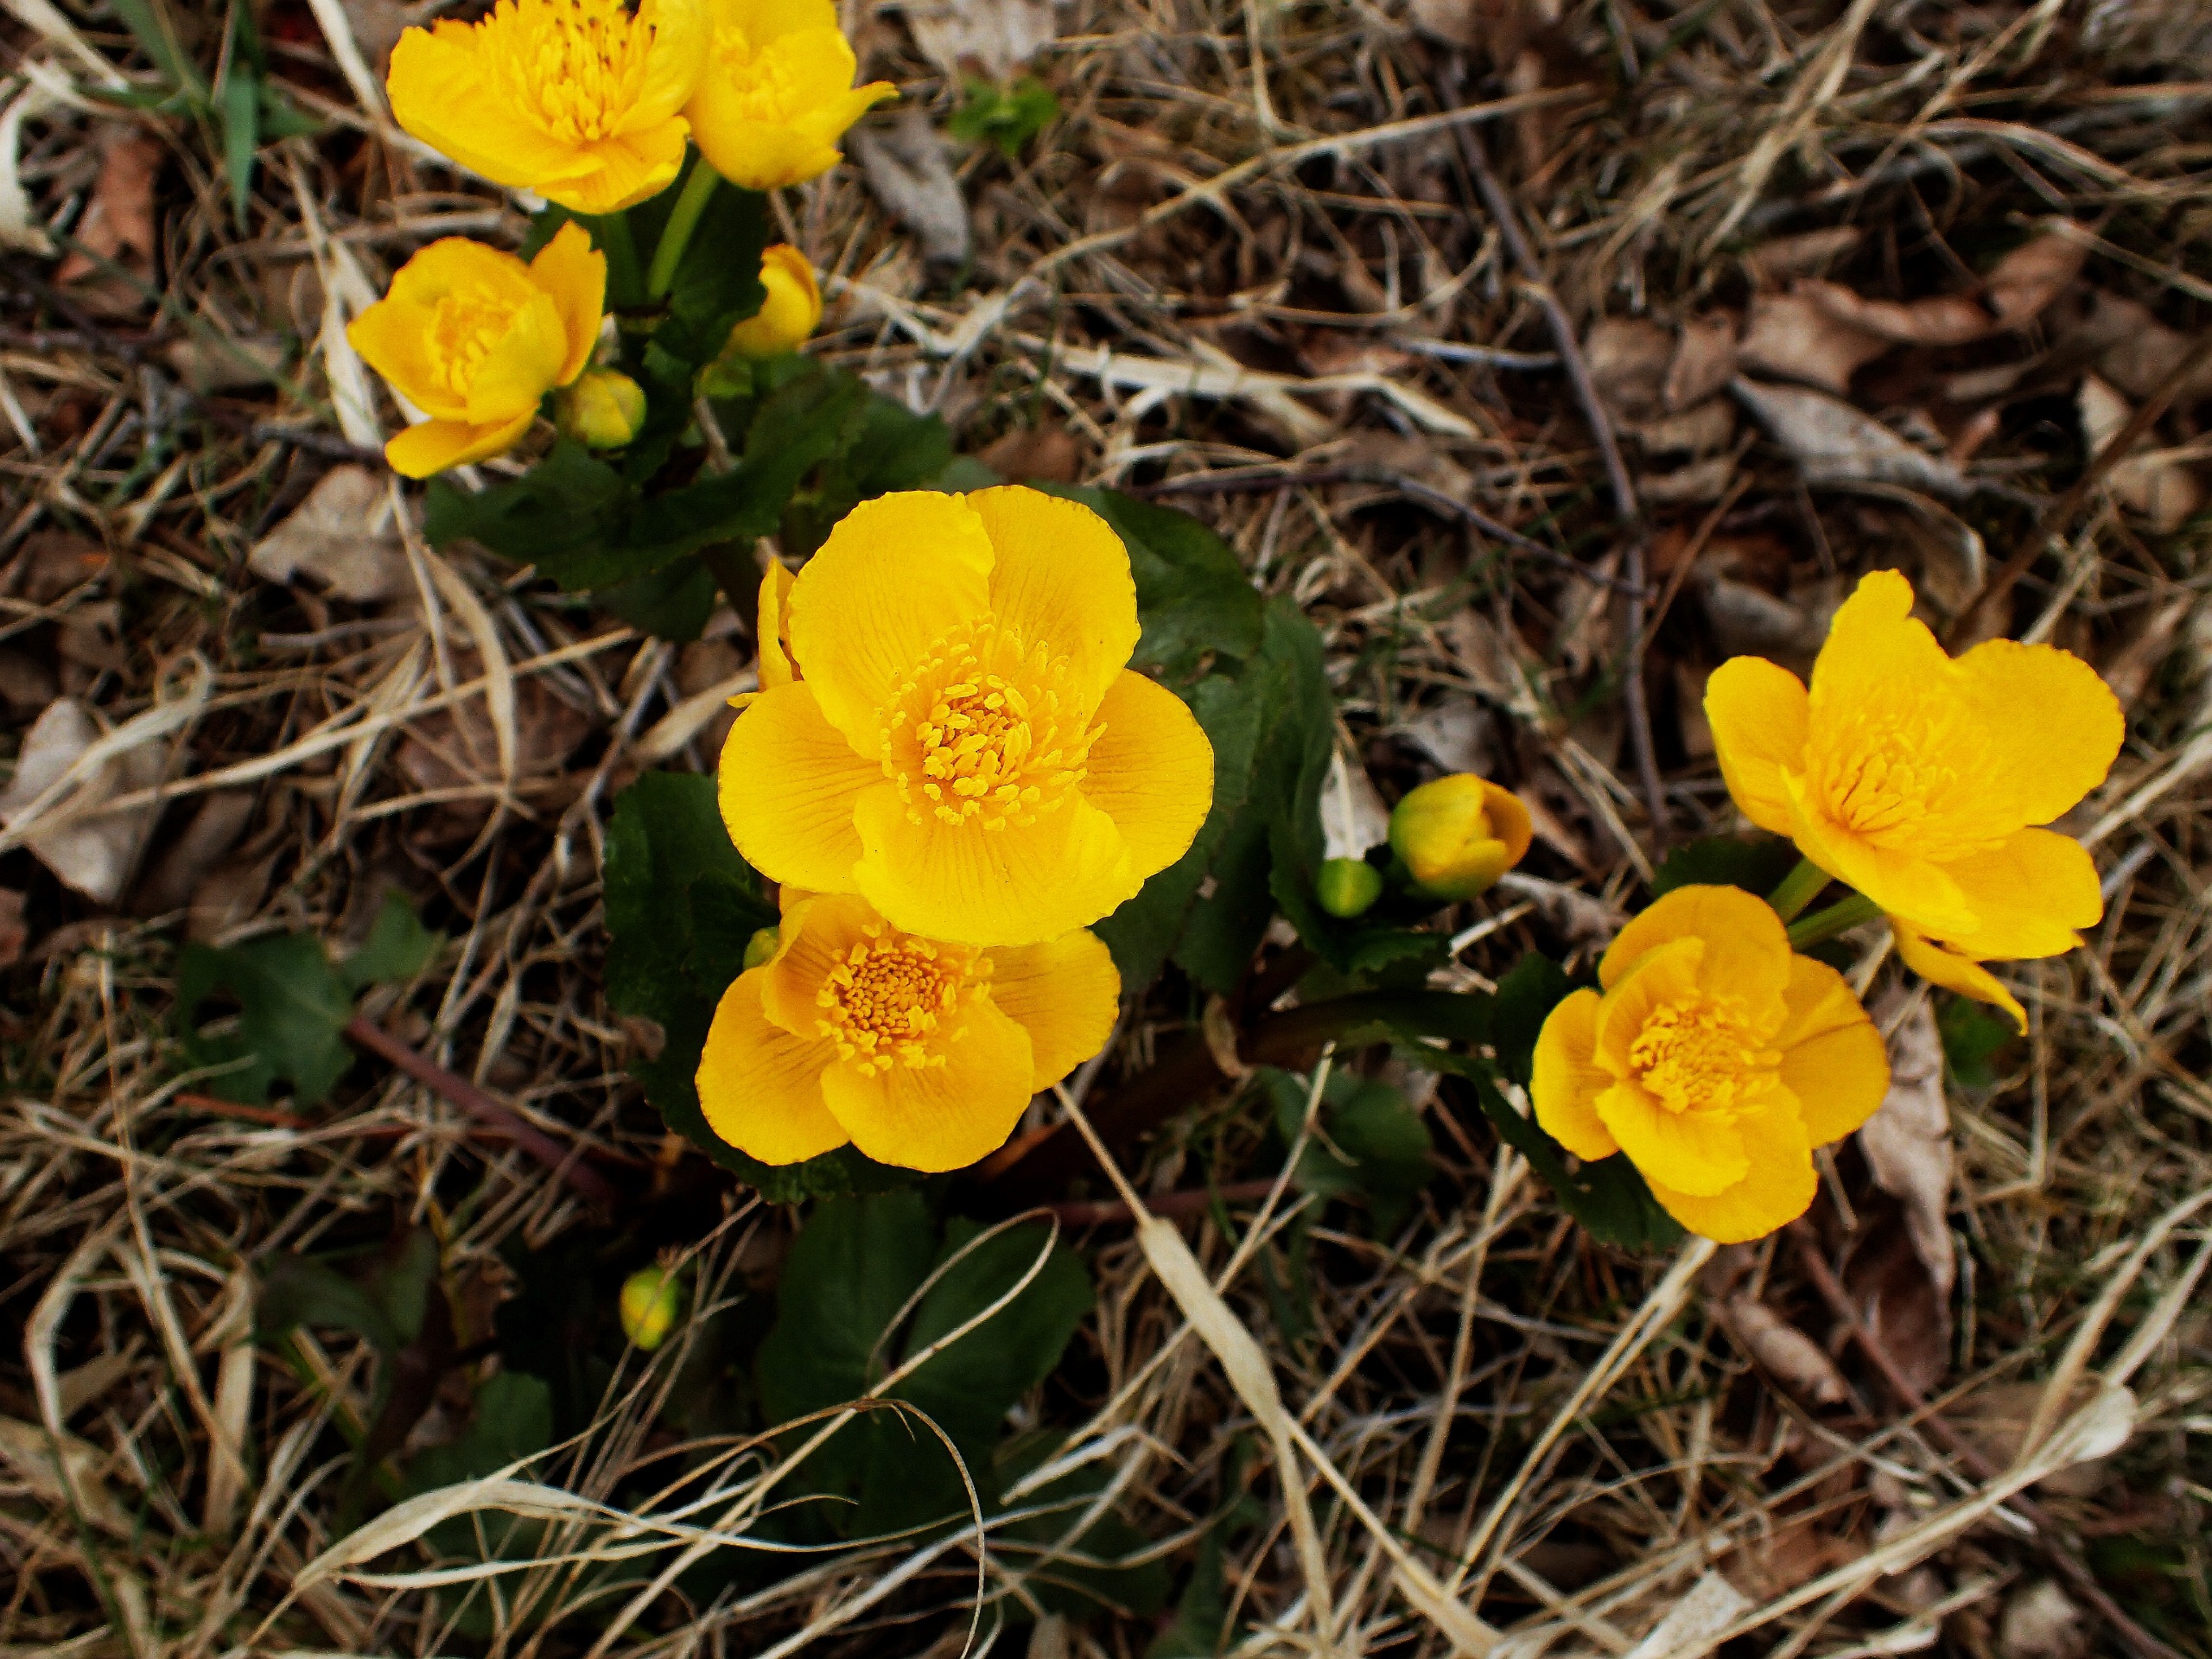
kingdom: Plantae
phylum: Tracheophyta
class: Magnoliopsida
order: Ranunculales
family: Ranunculaceae
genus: Caltha
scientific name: Caltha palustris
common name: Eng-kabbeleje
